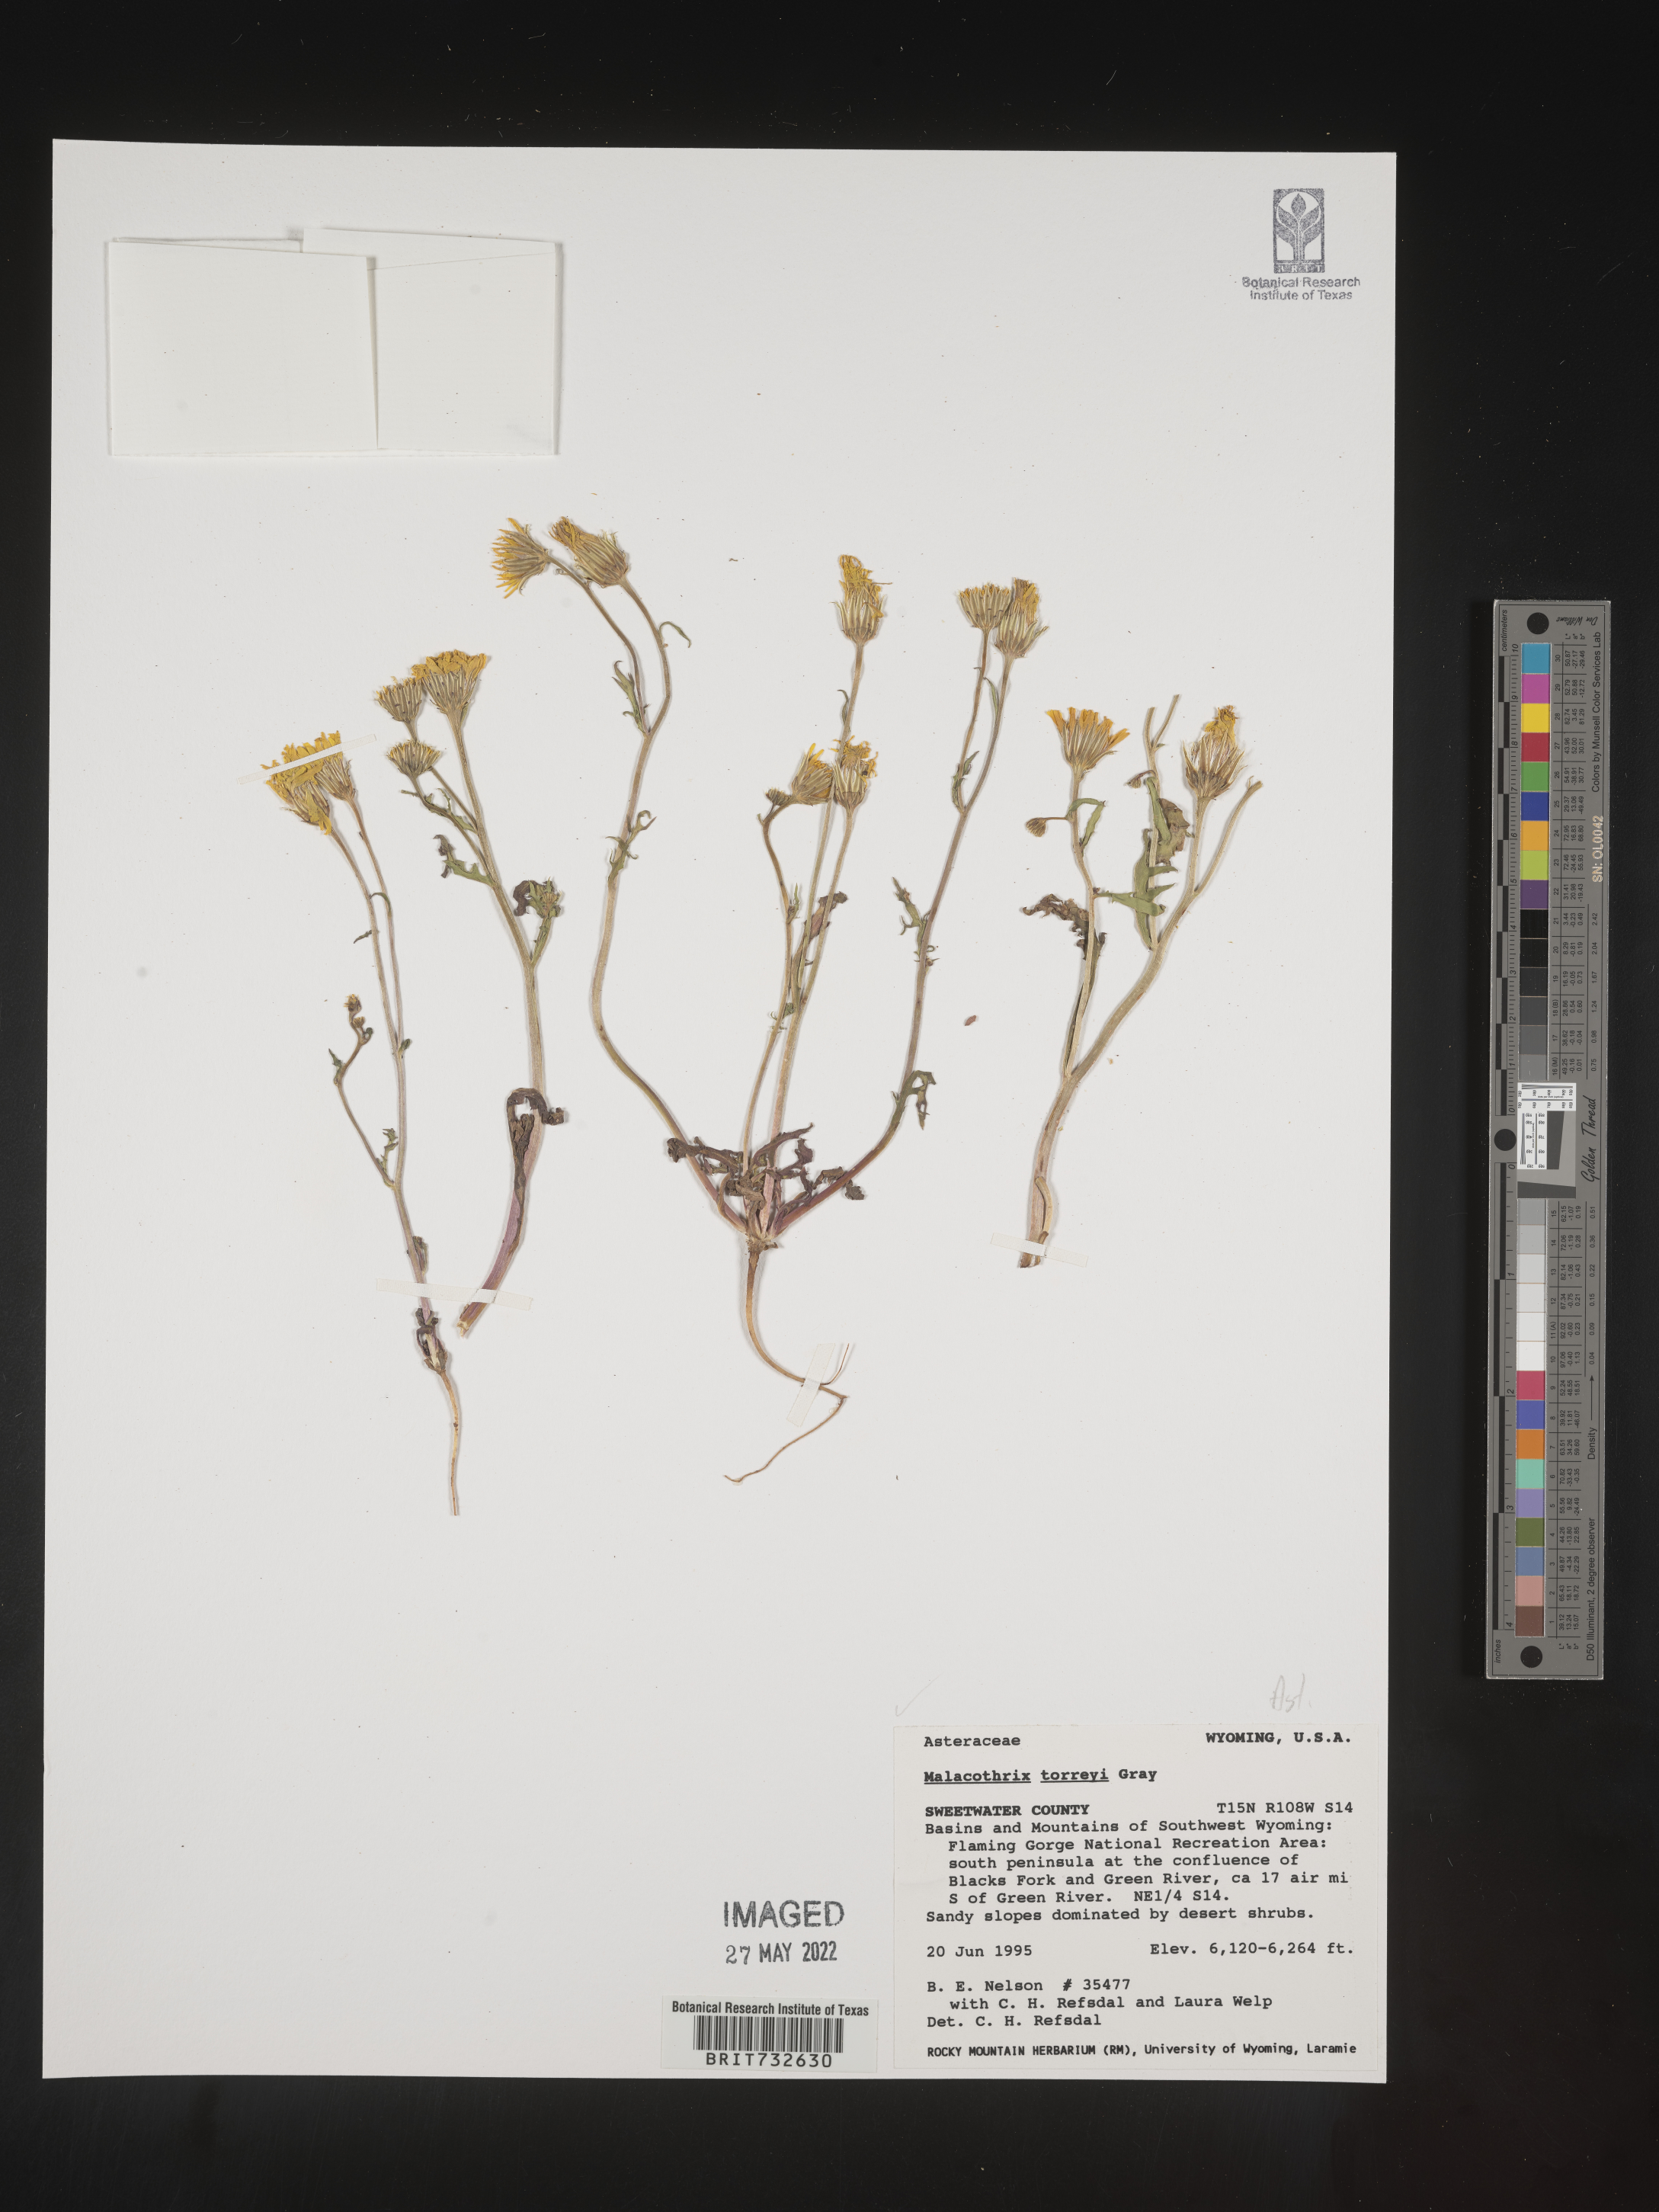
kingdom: Plantae
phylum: Tracheophyta
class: Magnoliopsida
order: Asterales
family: Asteraceae
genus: Malacothrix
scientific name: Malacothrix torreyi
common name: Torrey's desert-dandelion
